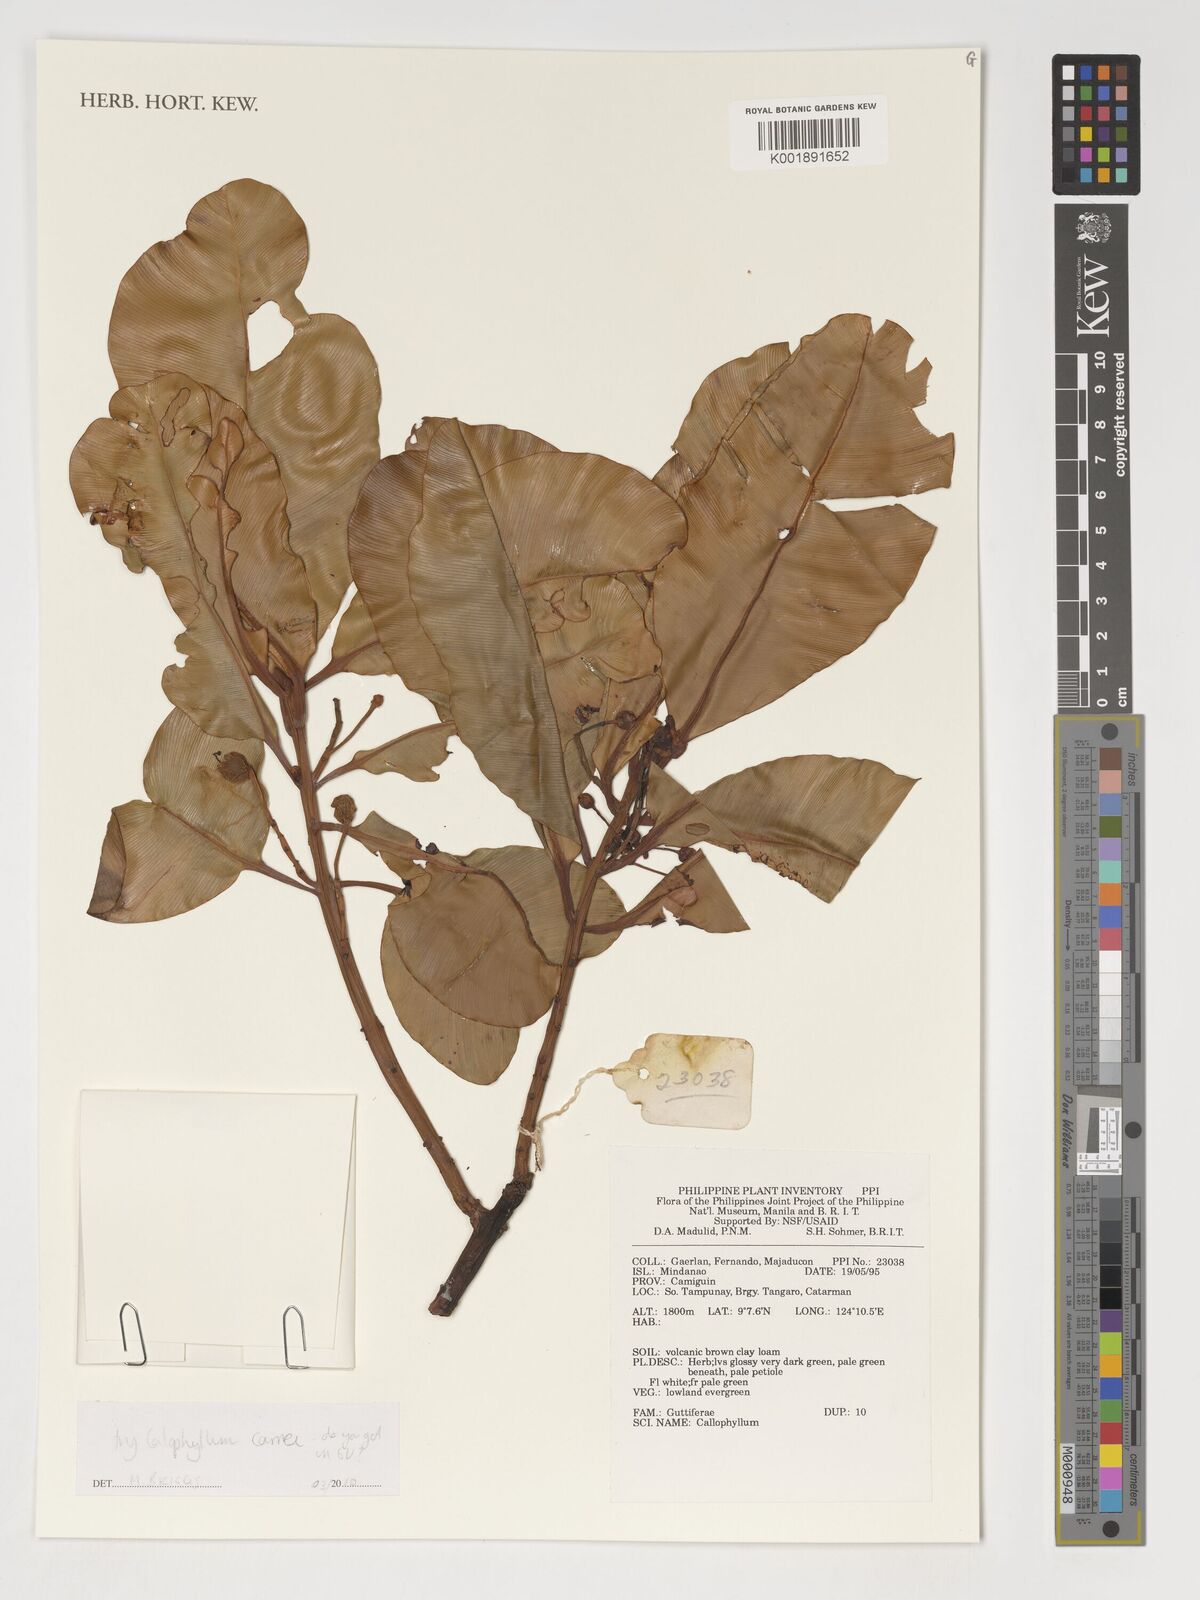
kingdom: Plantae
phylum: Tracheophyta
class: Magnoliopsida
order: Malpighiales
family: Calophyllaceae
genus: Calophyllum
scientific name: Calophyllum carrii
